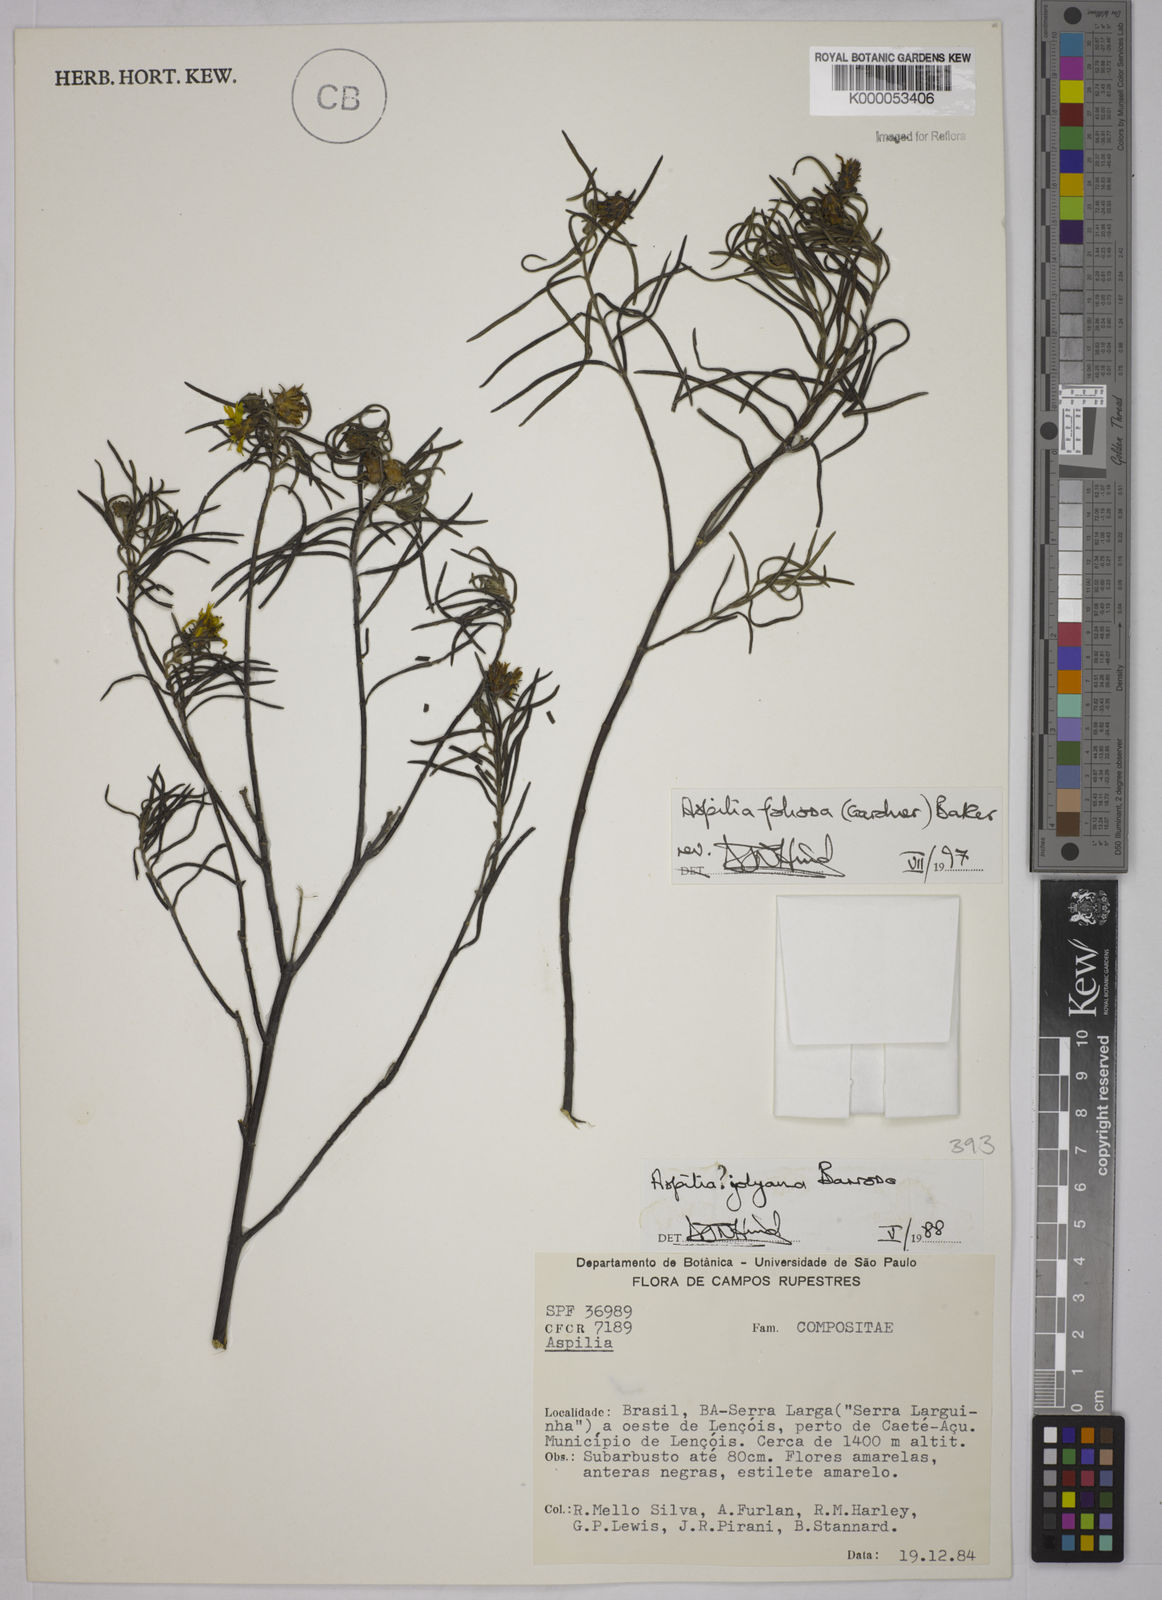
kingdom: Plantae
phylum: Tracheophyta
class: Magnoliopsida
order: Asterales
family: Asteraceae
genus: Aspilia
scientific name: Aspilia
